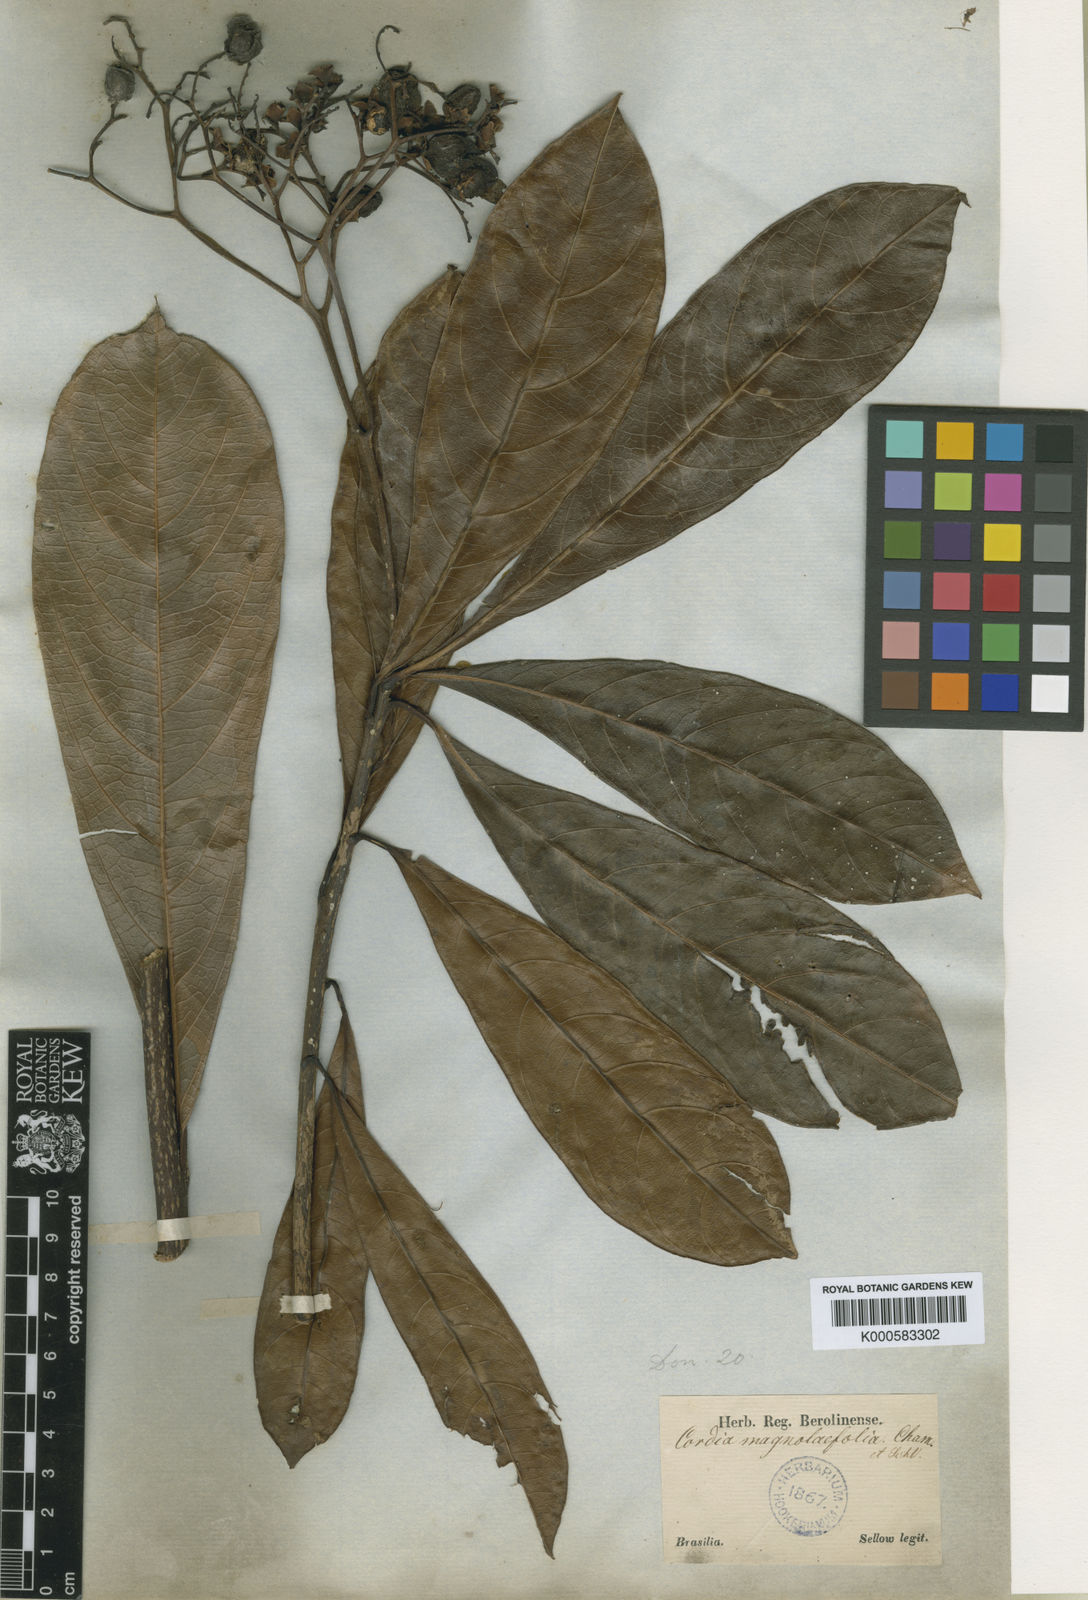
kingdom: Plantae
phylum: Tracheophyta
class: Magnoliopsida
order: Boraginales
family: Cordiaceae
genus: Cordia
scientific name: Cordia magnoliifolia
